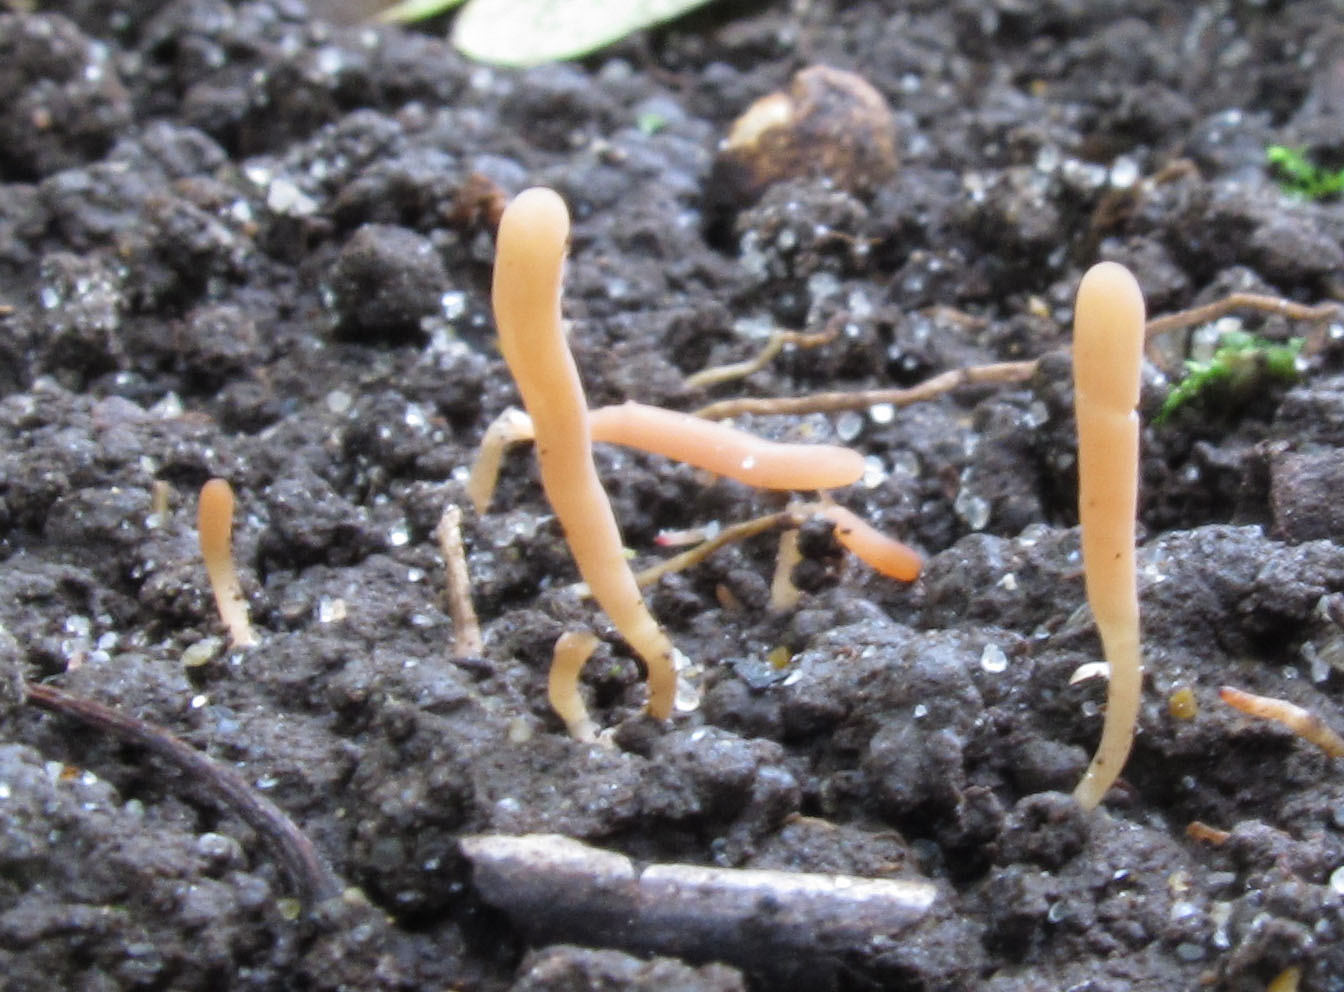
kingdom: Fungi
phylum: Basidiomycota
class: Agaricomycetes
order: Agaricales
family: Clavariaceae
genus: Clavaria
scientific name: Clavaria incarnata
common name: kødrød køllesvamp
